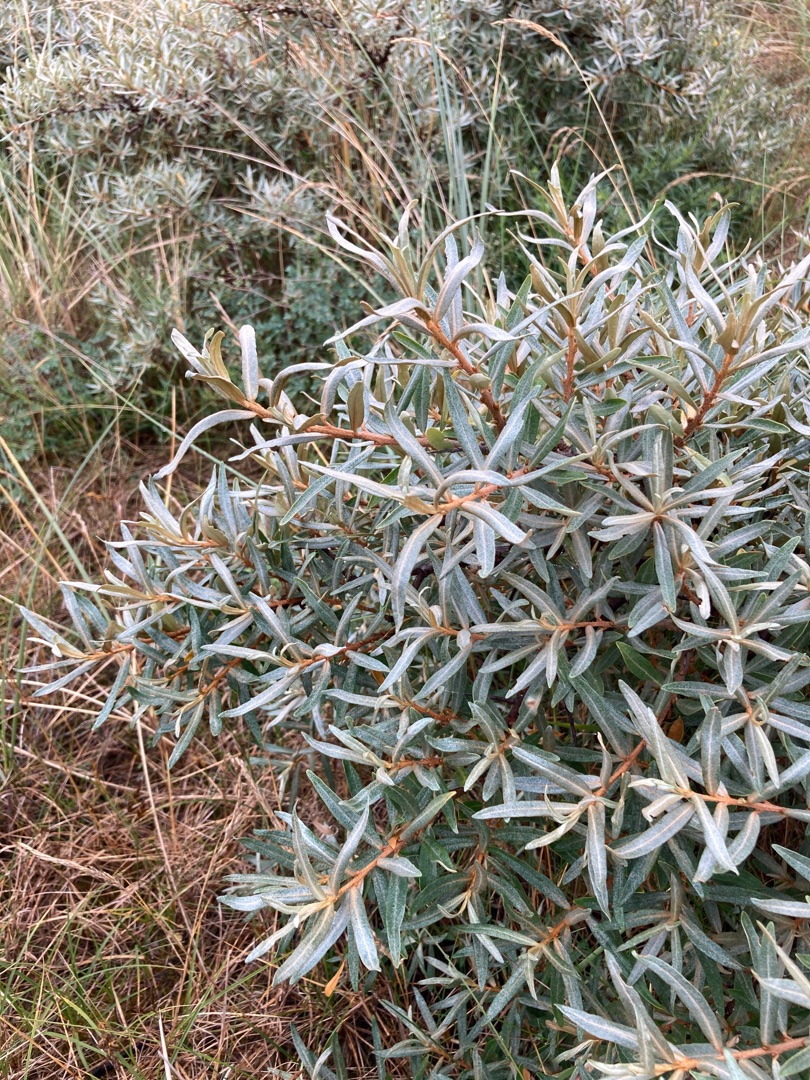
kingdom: Plantae
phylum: Tracheophyta
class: Magnoliopsida
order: Rosales
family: Elaeagnaceae
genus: Hippophae
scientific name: Hippophae rhamnoides
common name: Havtorn
